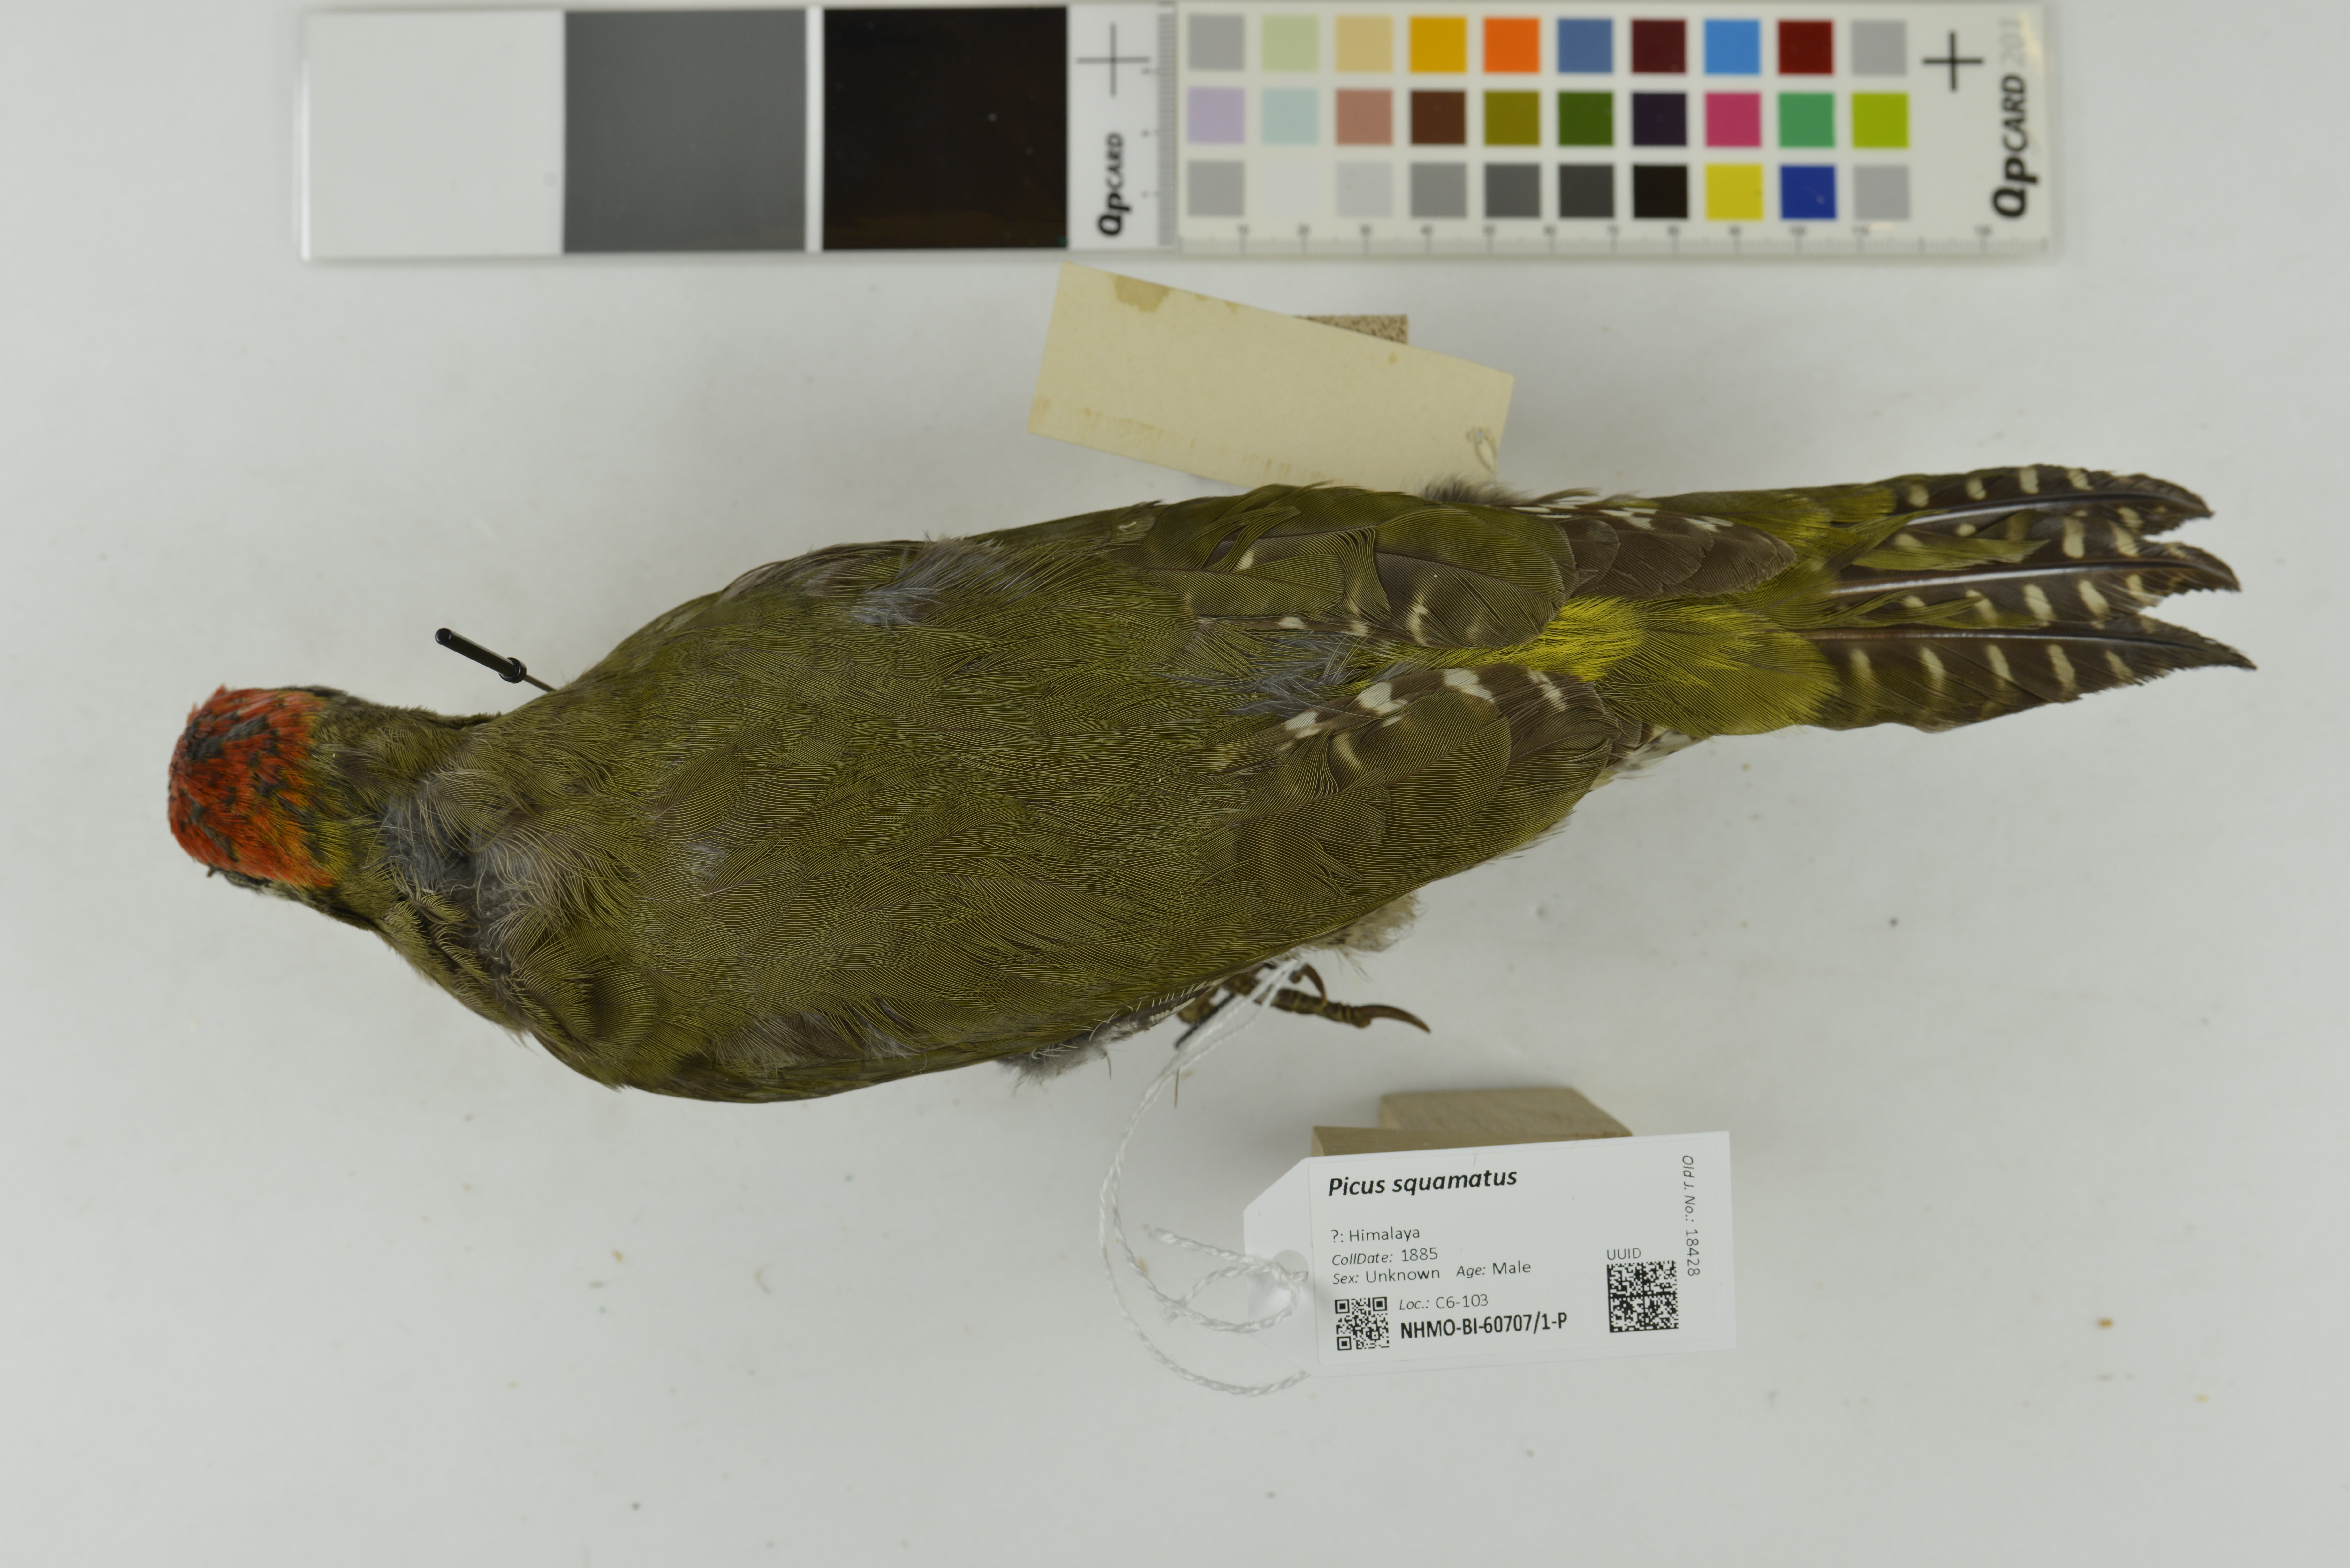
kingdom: Animalia
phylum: Chordata
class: Aves
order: Piciformes
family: Picidae
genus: Picus
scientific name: Picus squamatus
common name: Scaly-bellied woodpecker
